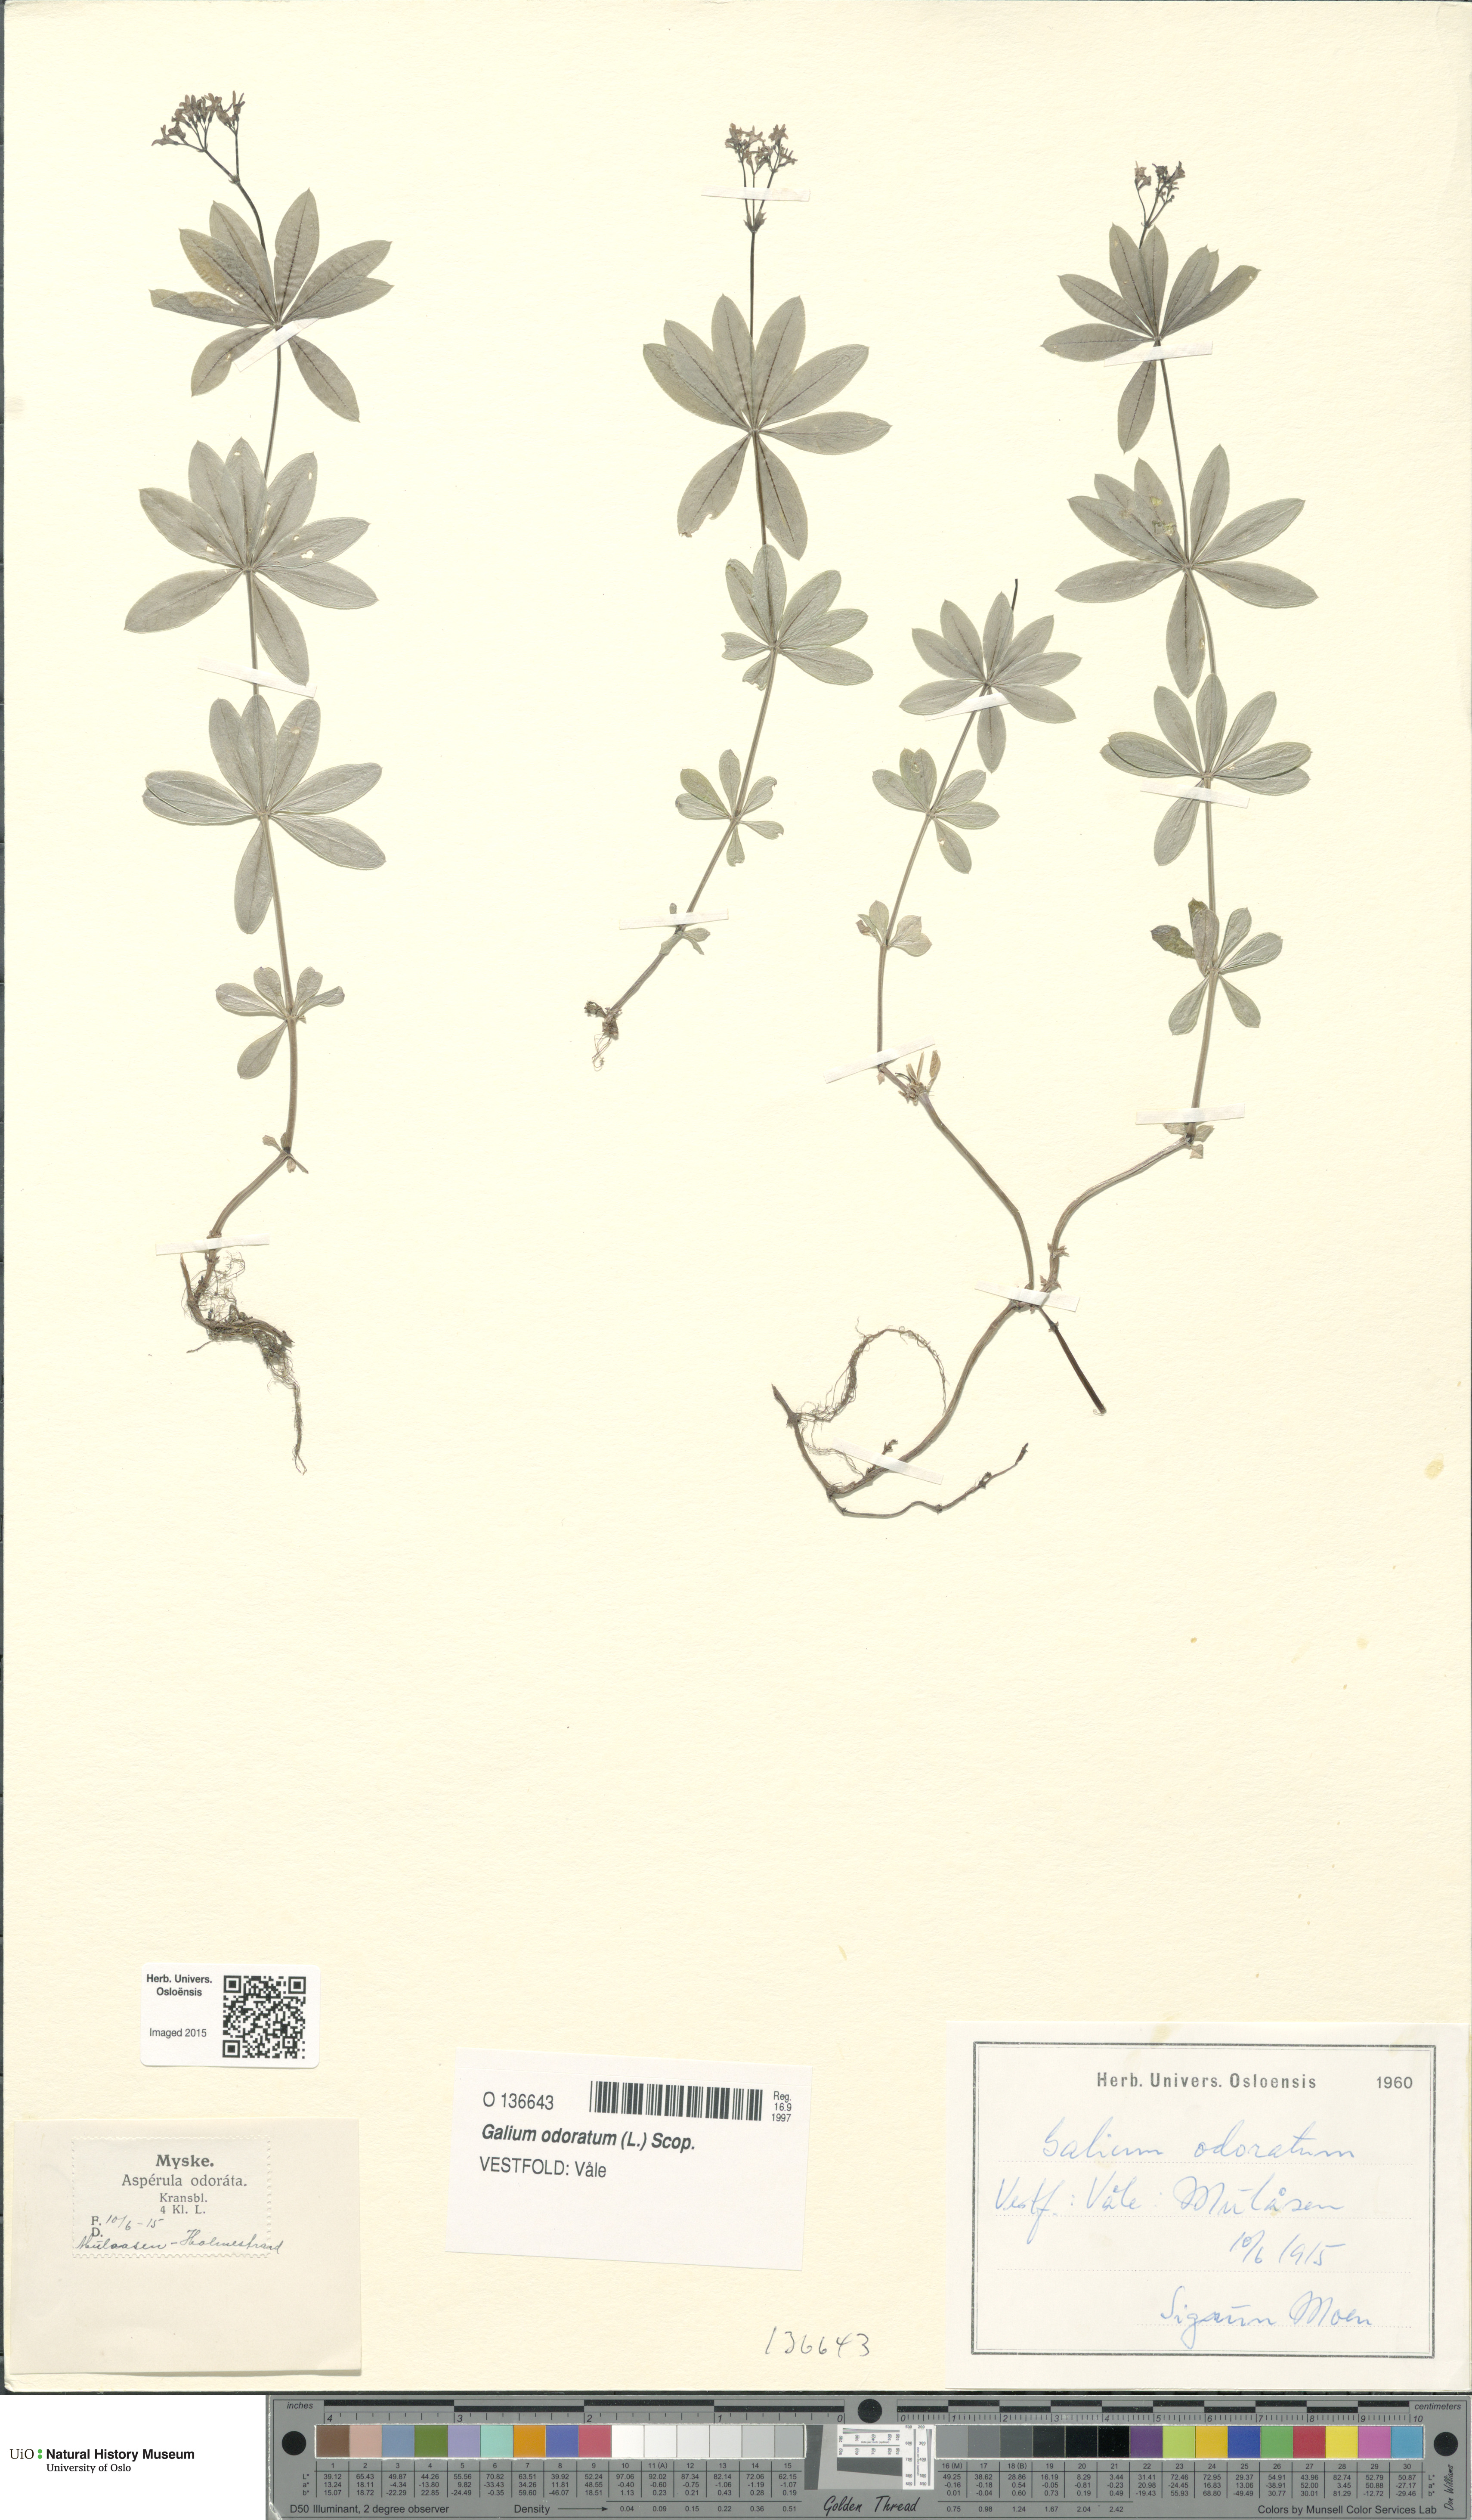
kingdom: Plantae
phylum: Tracheophyta
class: Magnoliopsida
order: Gentianales
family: Rubiaceae
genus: Galium
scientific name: Galium odoratum
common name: Sweet woodruff
